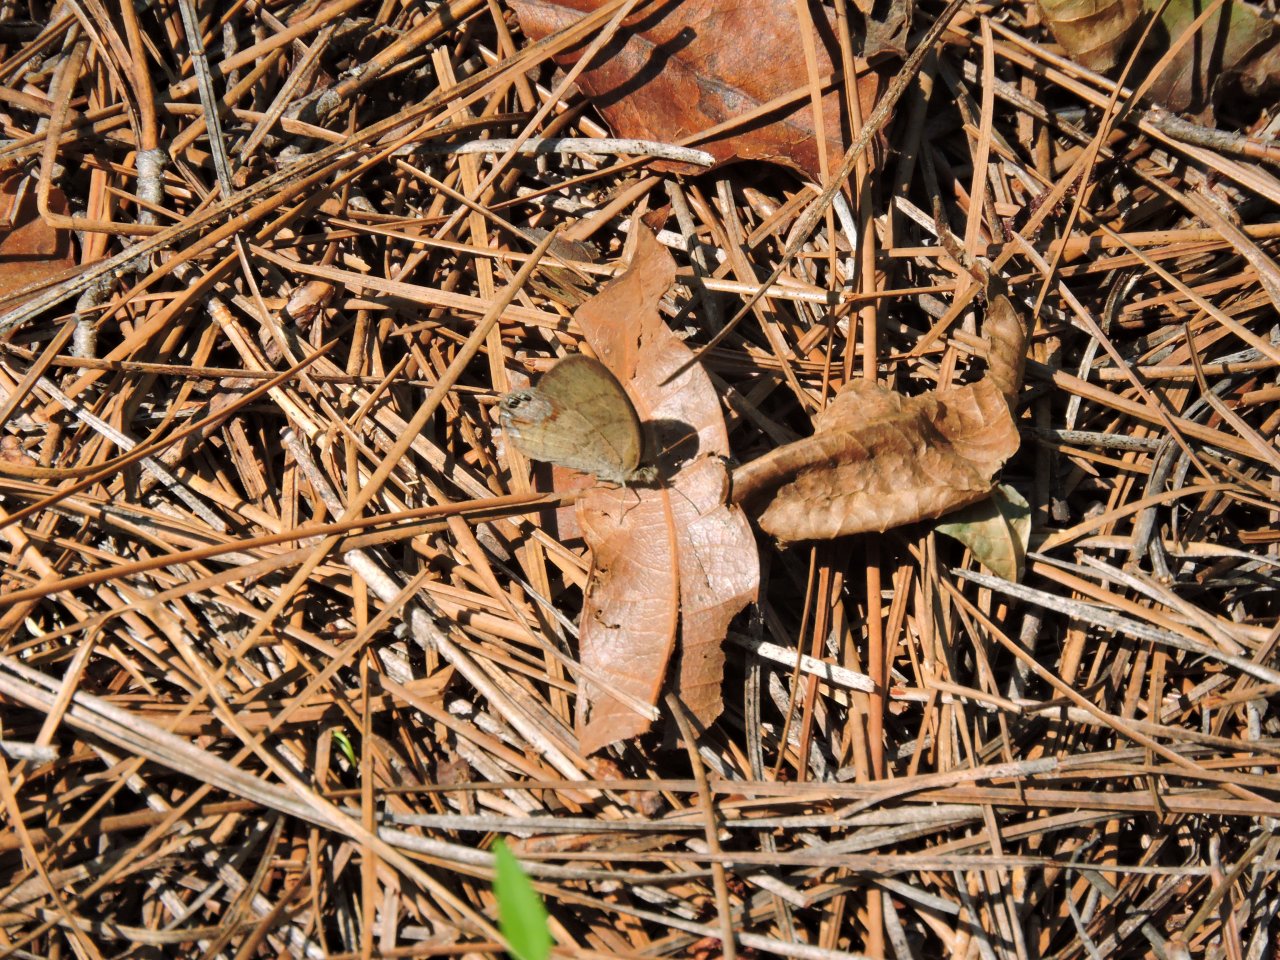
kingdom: Animalia
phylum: Arthropoda
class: Insecta
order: Lepidoptera
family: Nymphalidae
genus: Euptychia
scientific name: Euptychia cornelius
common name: Gemmed Satyr
